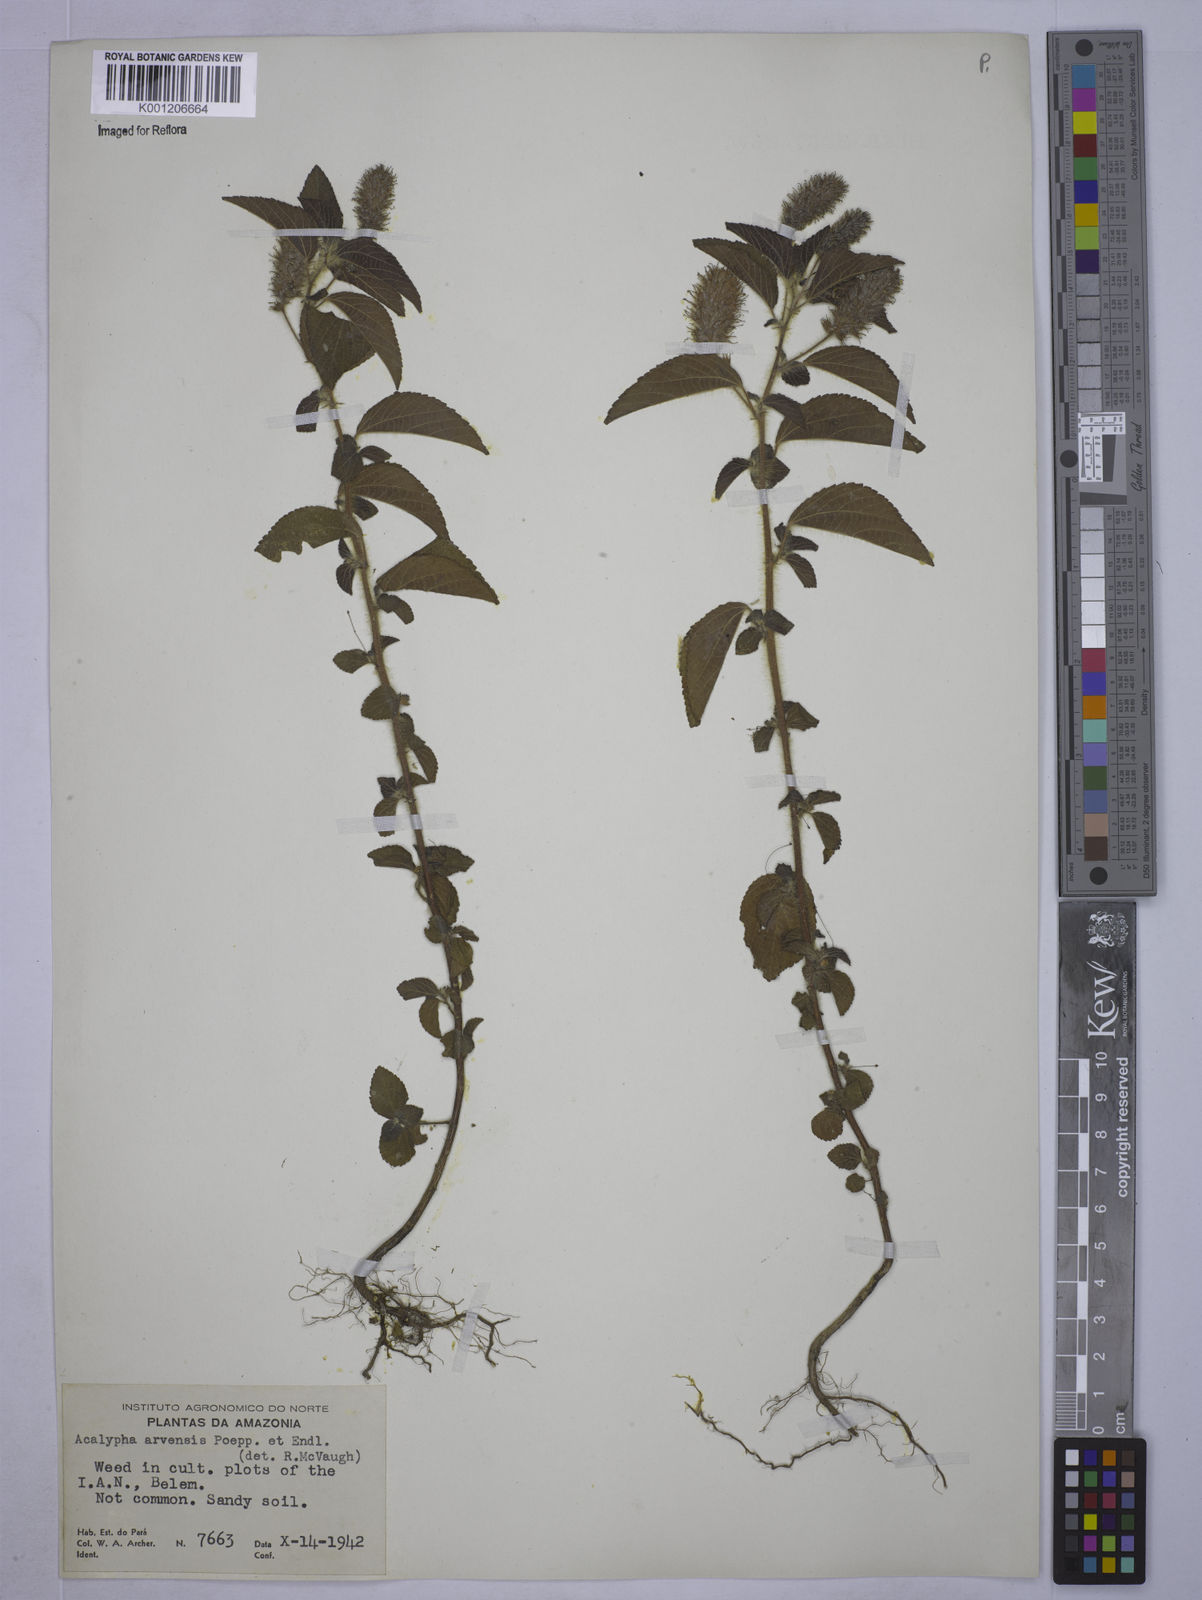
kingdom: Plantae
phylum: Tracheophyta
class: Magnoliopsida
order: Malpighiales
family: Euphorbiaceae
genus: Acalypha
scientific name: Acalypha arvensis
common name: Field copperleaf
